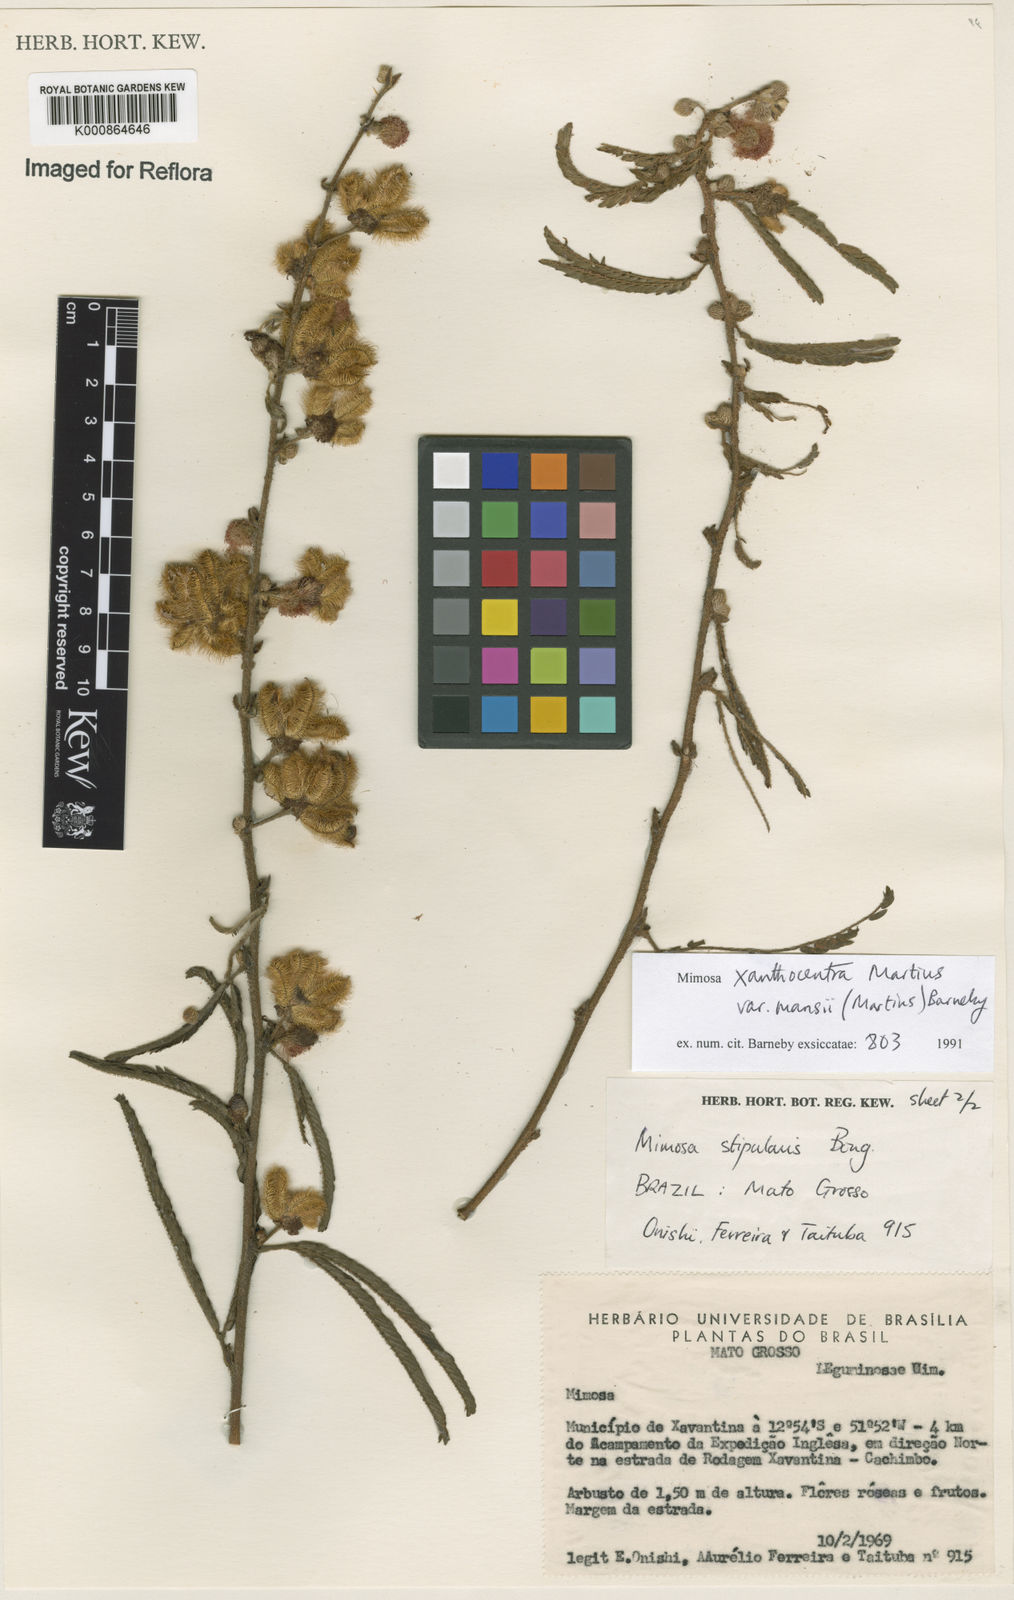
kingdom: Plantae
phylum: Tracheophyta
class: Magnoliopsida
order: Fabales
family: Fabaceae
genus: Mimosa
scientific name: Mimosa xanthocentra
